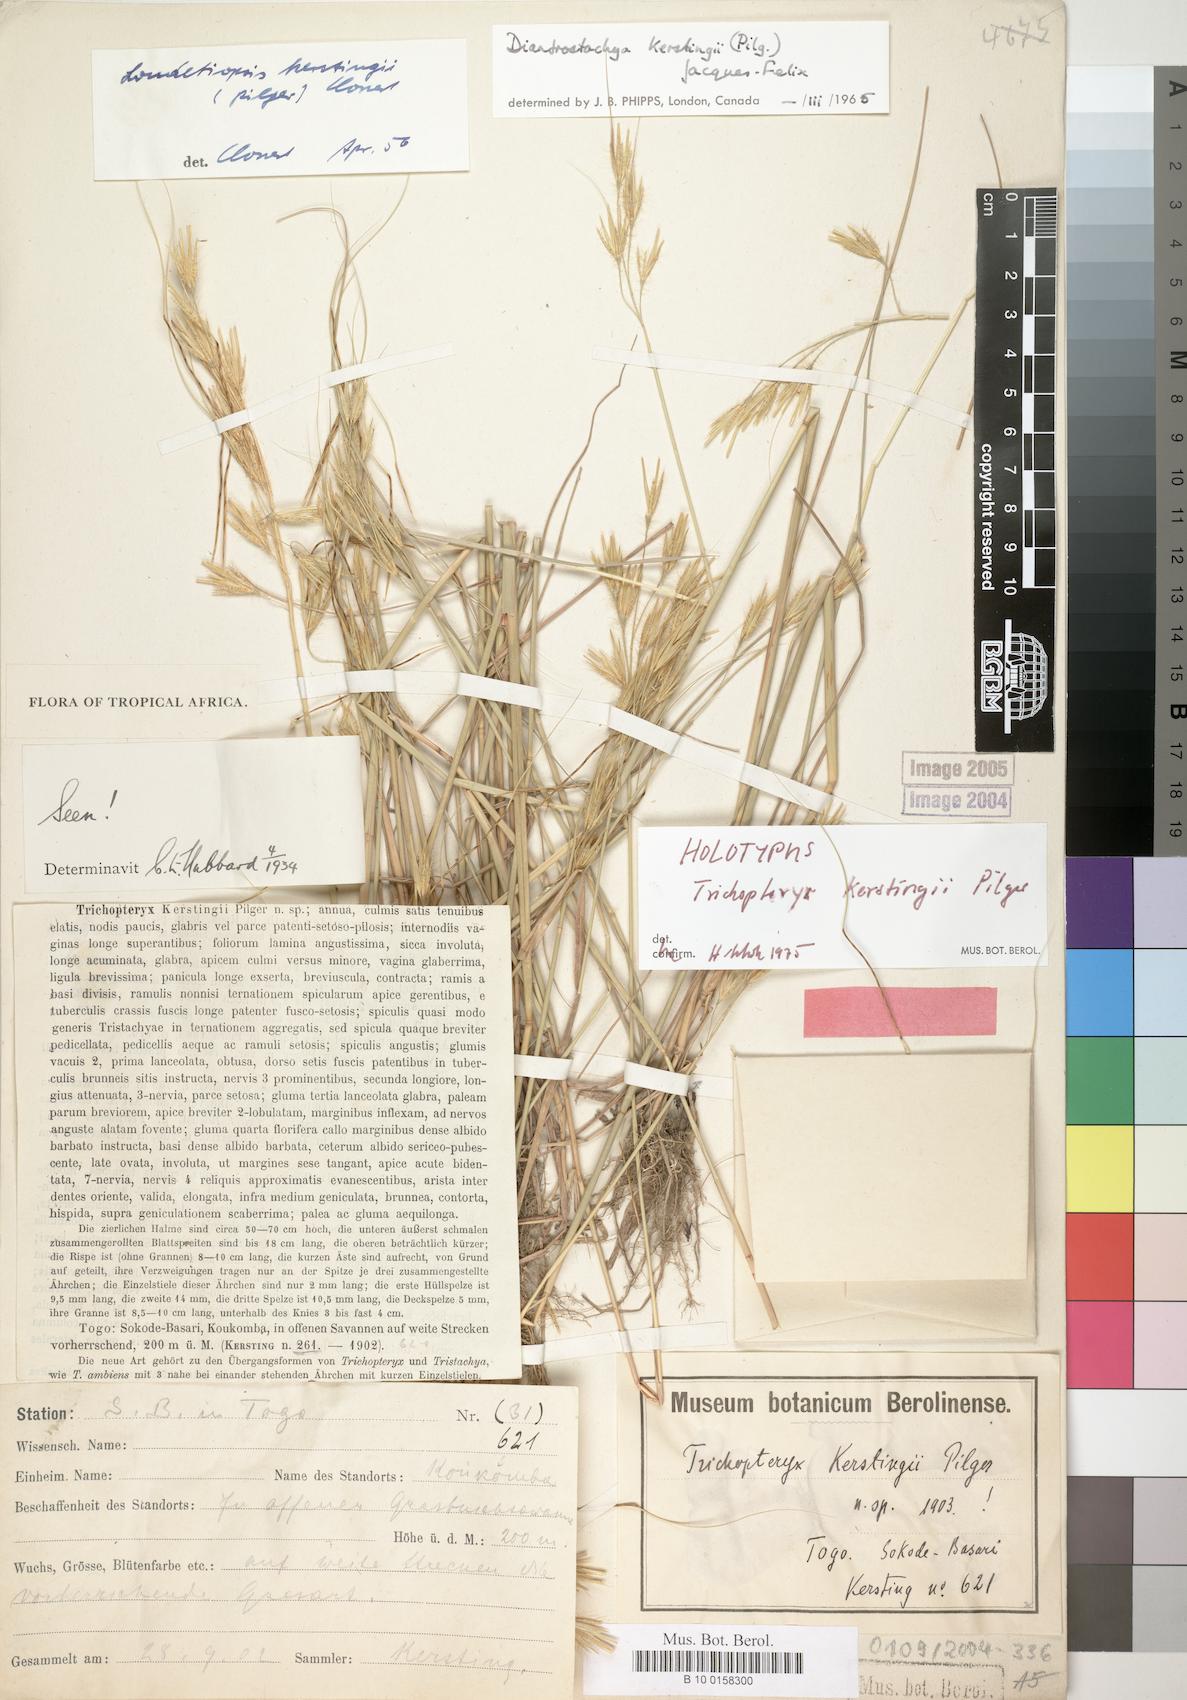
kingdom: Plantae
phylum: Tracheophyta
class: Liliopsida
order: Poales
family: Poaceae
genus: Loudetiopsis
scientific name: Loudetiopsis kerstingii
